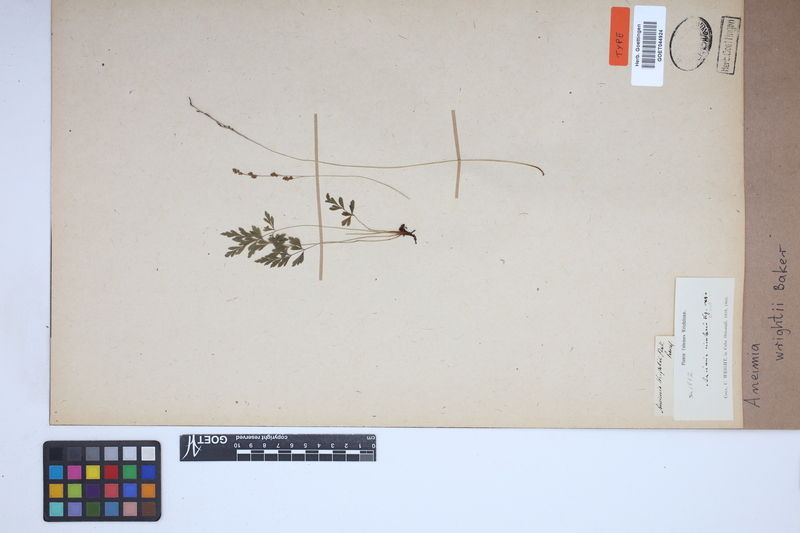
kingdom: Plantae
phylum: Tracheophyta
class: Polypodiopsida
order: Schizaeales
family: Anemiaceae
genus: Anemia
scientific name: Anemia wrightii
